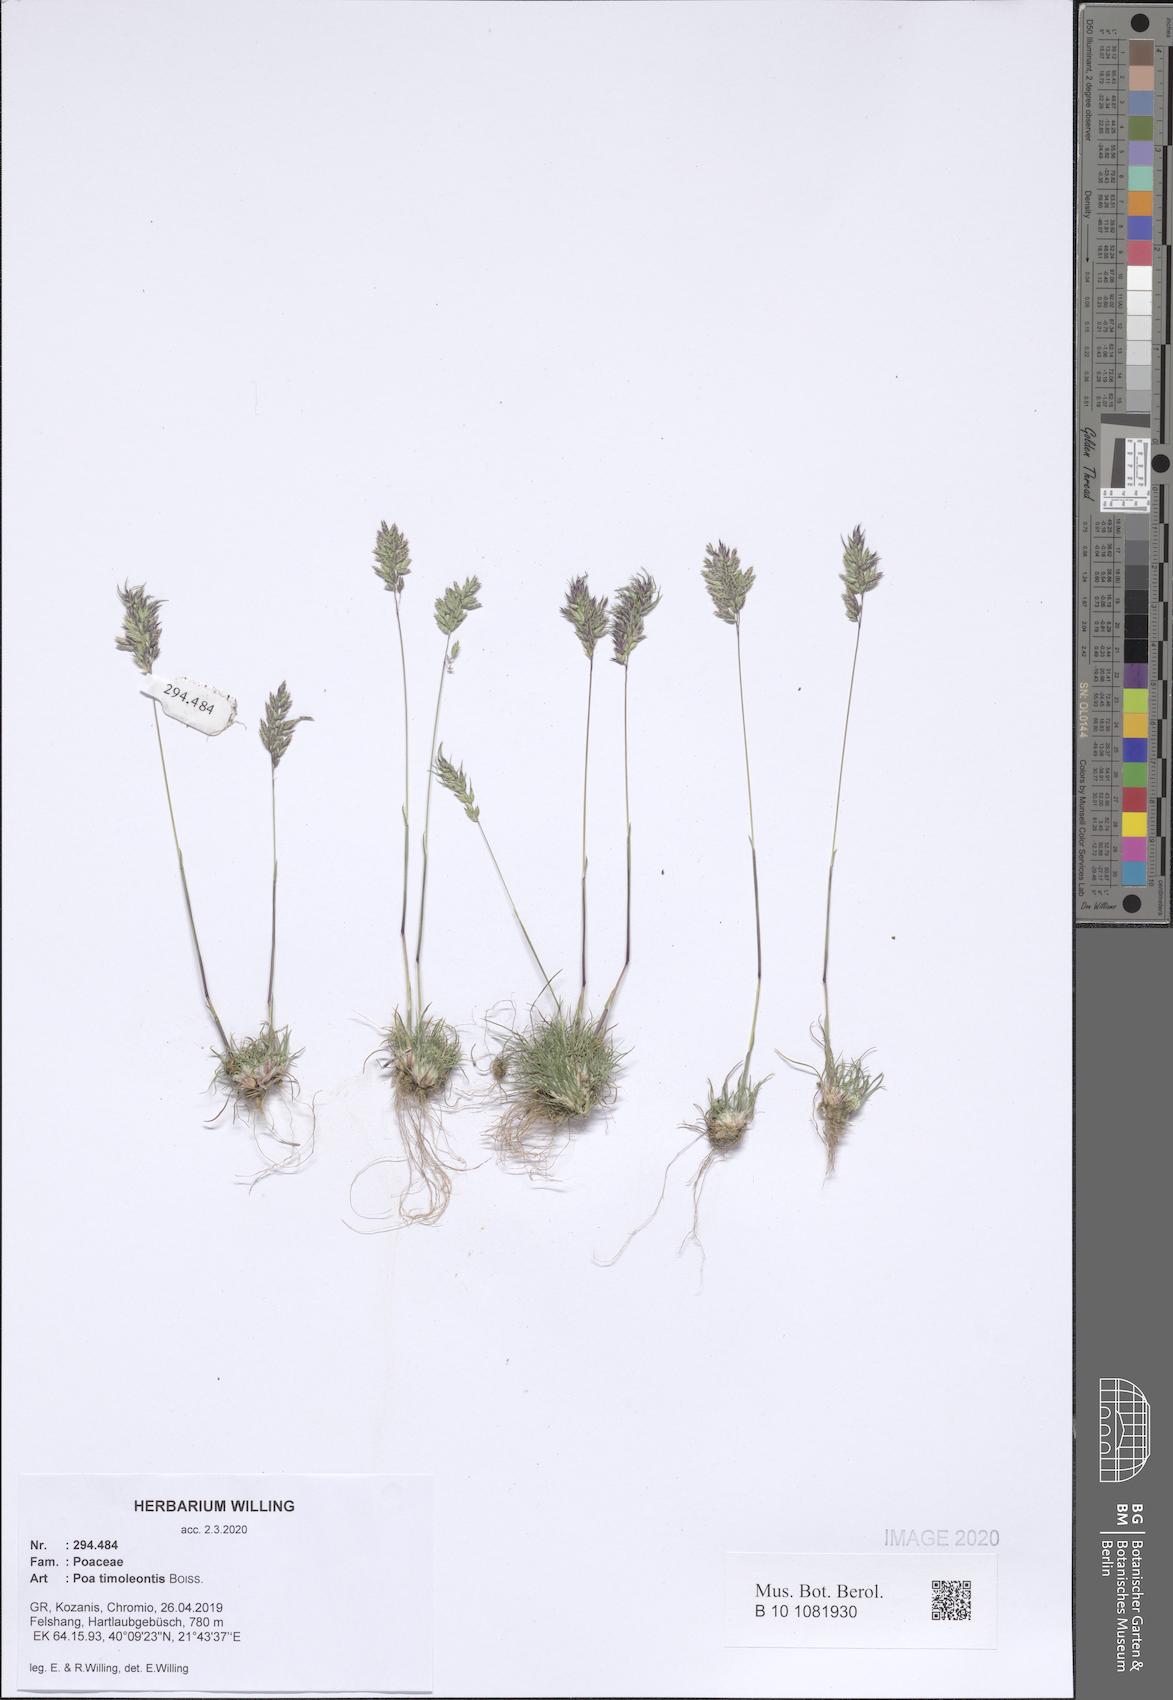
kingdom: Plantae
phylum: Tracheophyta
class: Liliopsida
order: Poales
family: Poaceae
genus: Poa
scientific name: Poa timoleontis
